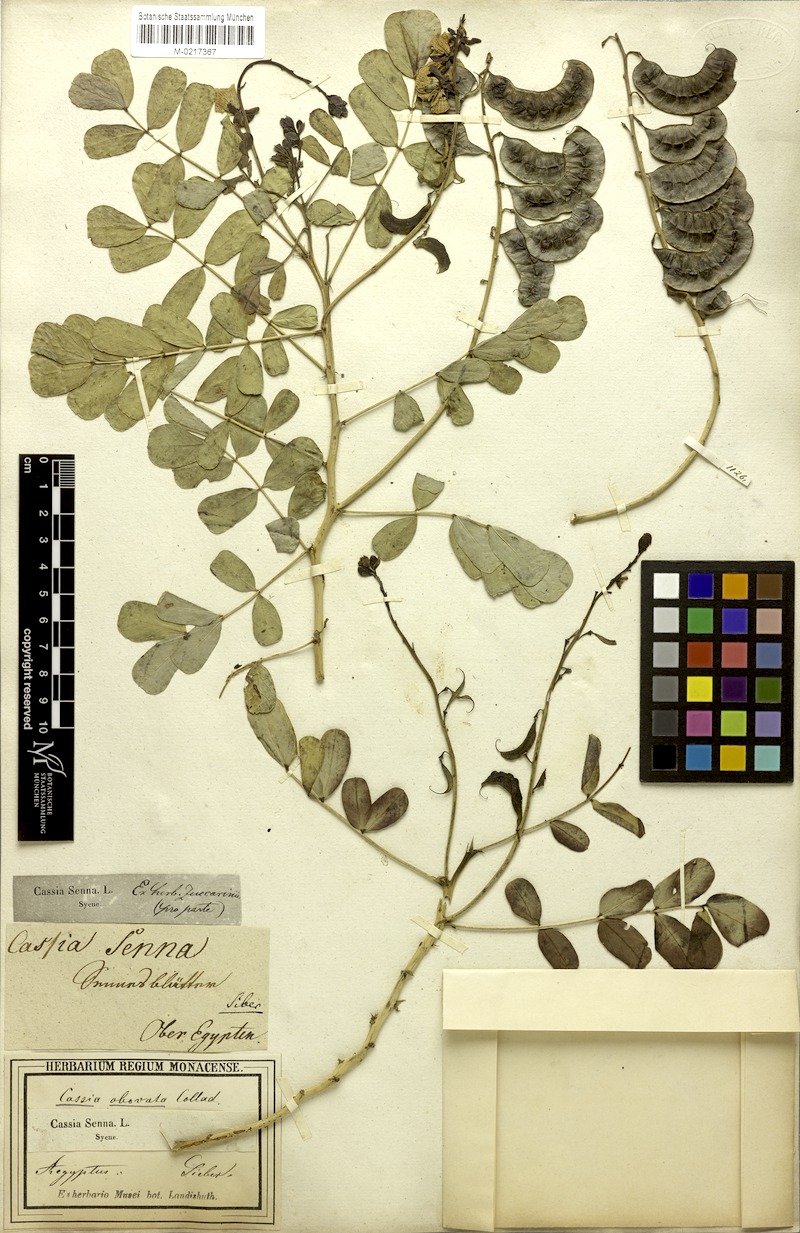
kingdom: Plantae
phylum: Tracheophyta
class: Magnoliopsida
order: Fabales
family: Fabaceae
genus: Senna
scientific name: Senna italica
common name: Port royal senna
